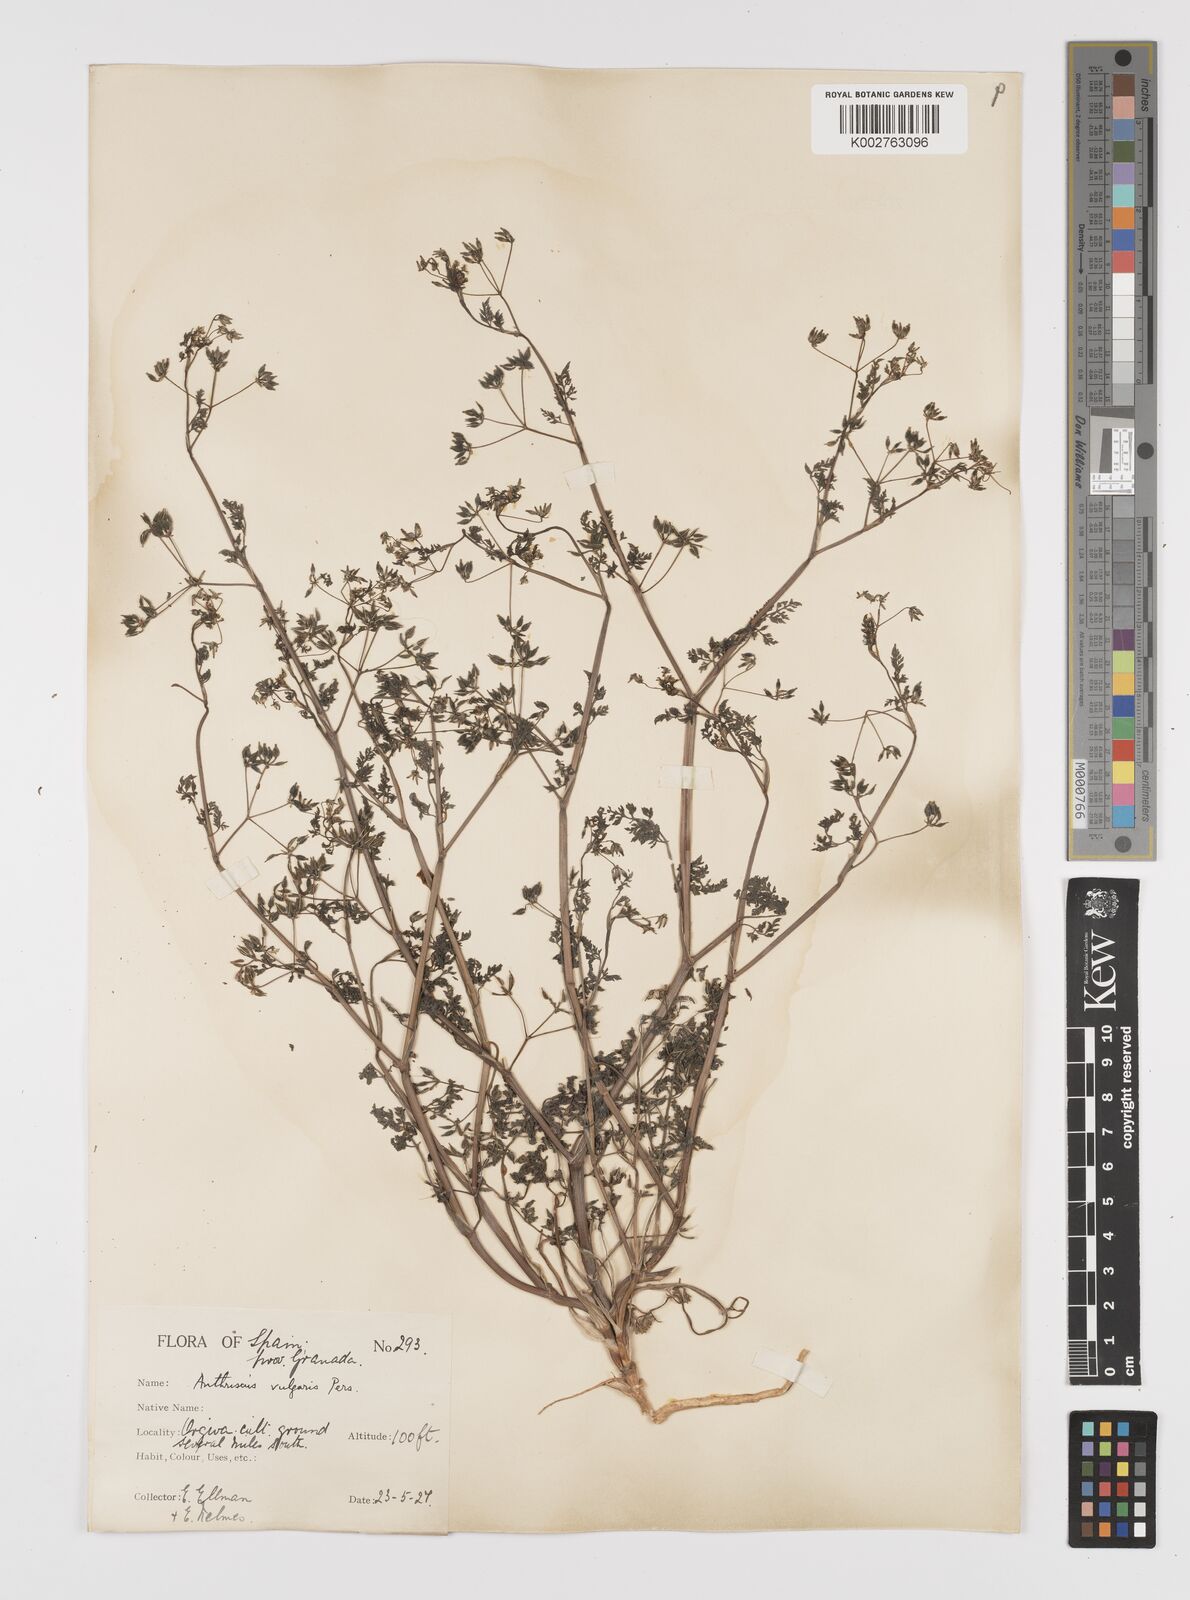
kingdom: Plantae
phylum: Tracheophyta
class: Magnoliopsida
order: Apiales
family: Apiaceae
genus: Anthriscus
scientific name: Anthriscus caucalis
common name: Bur chervil
